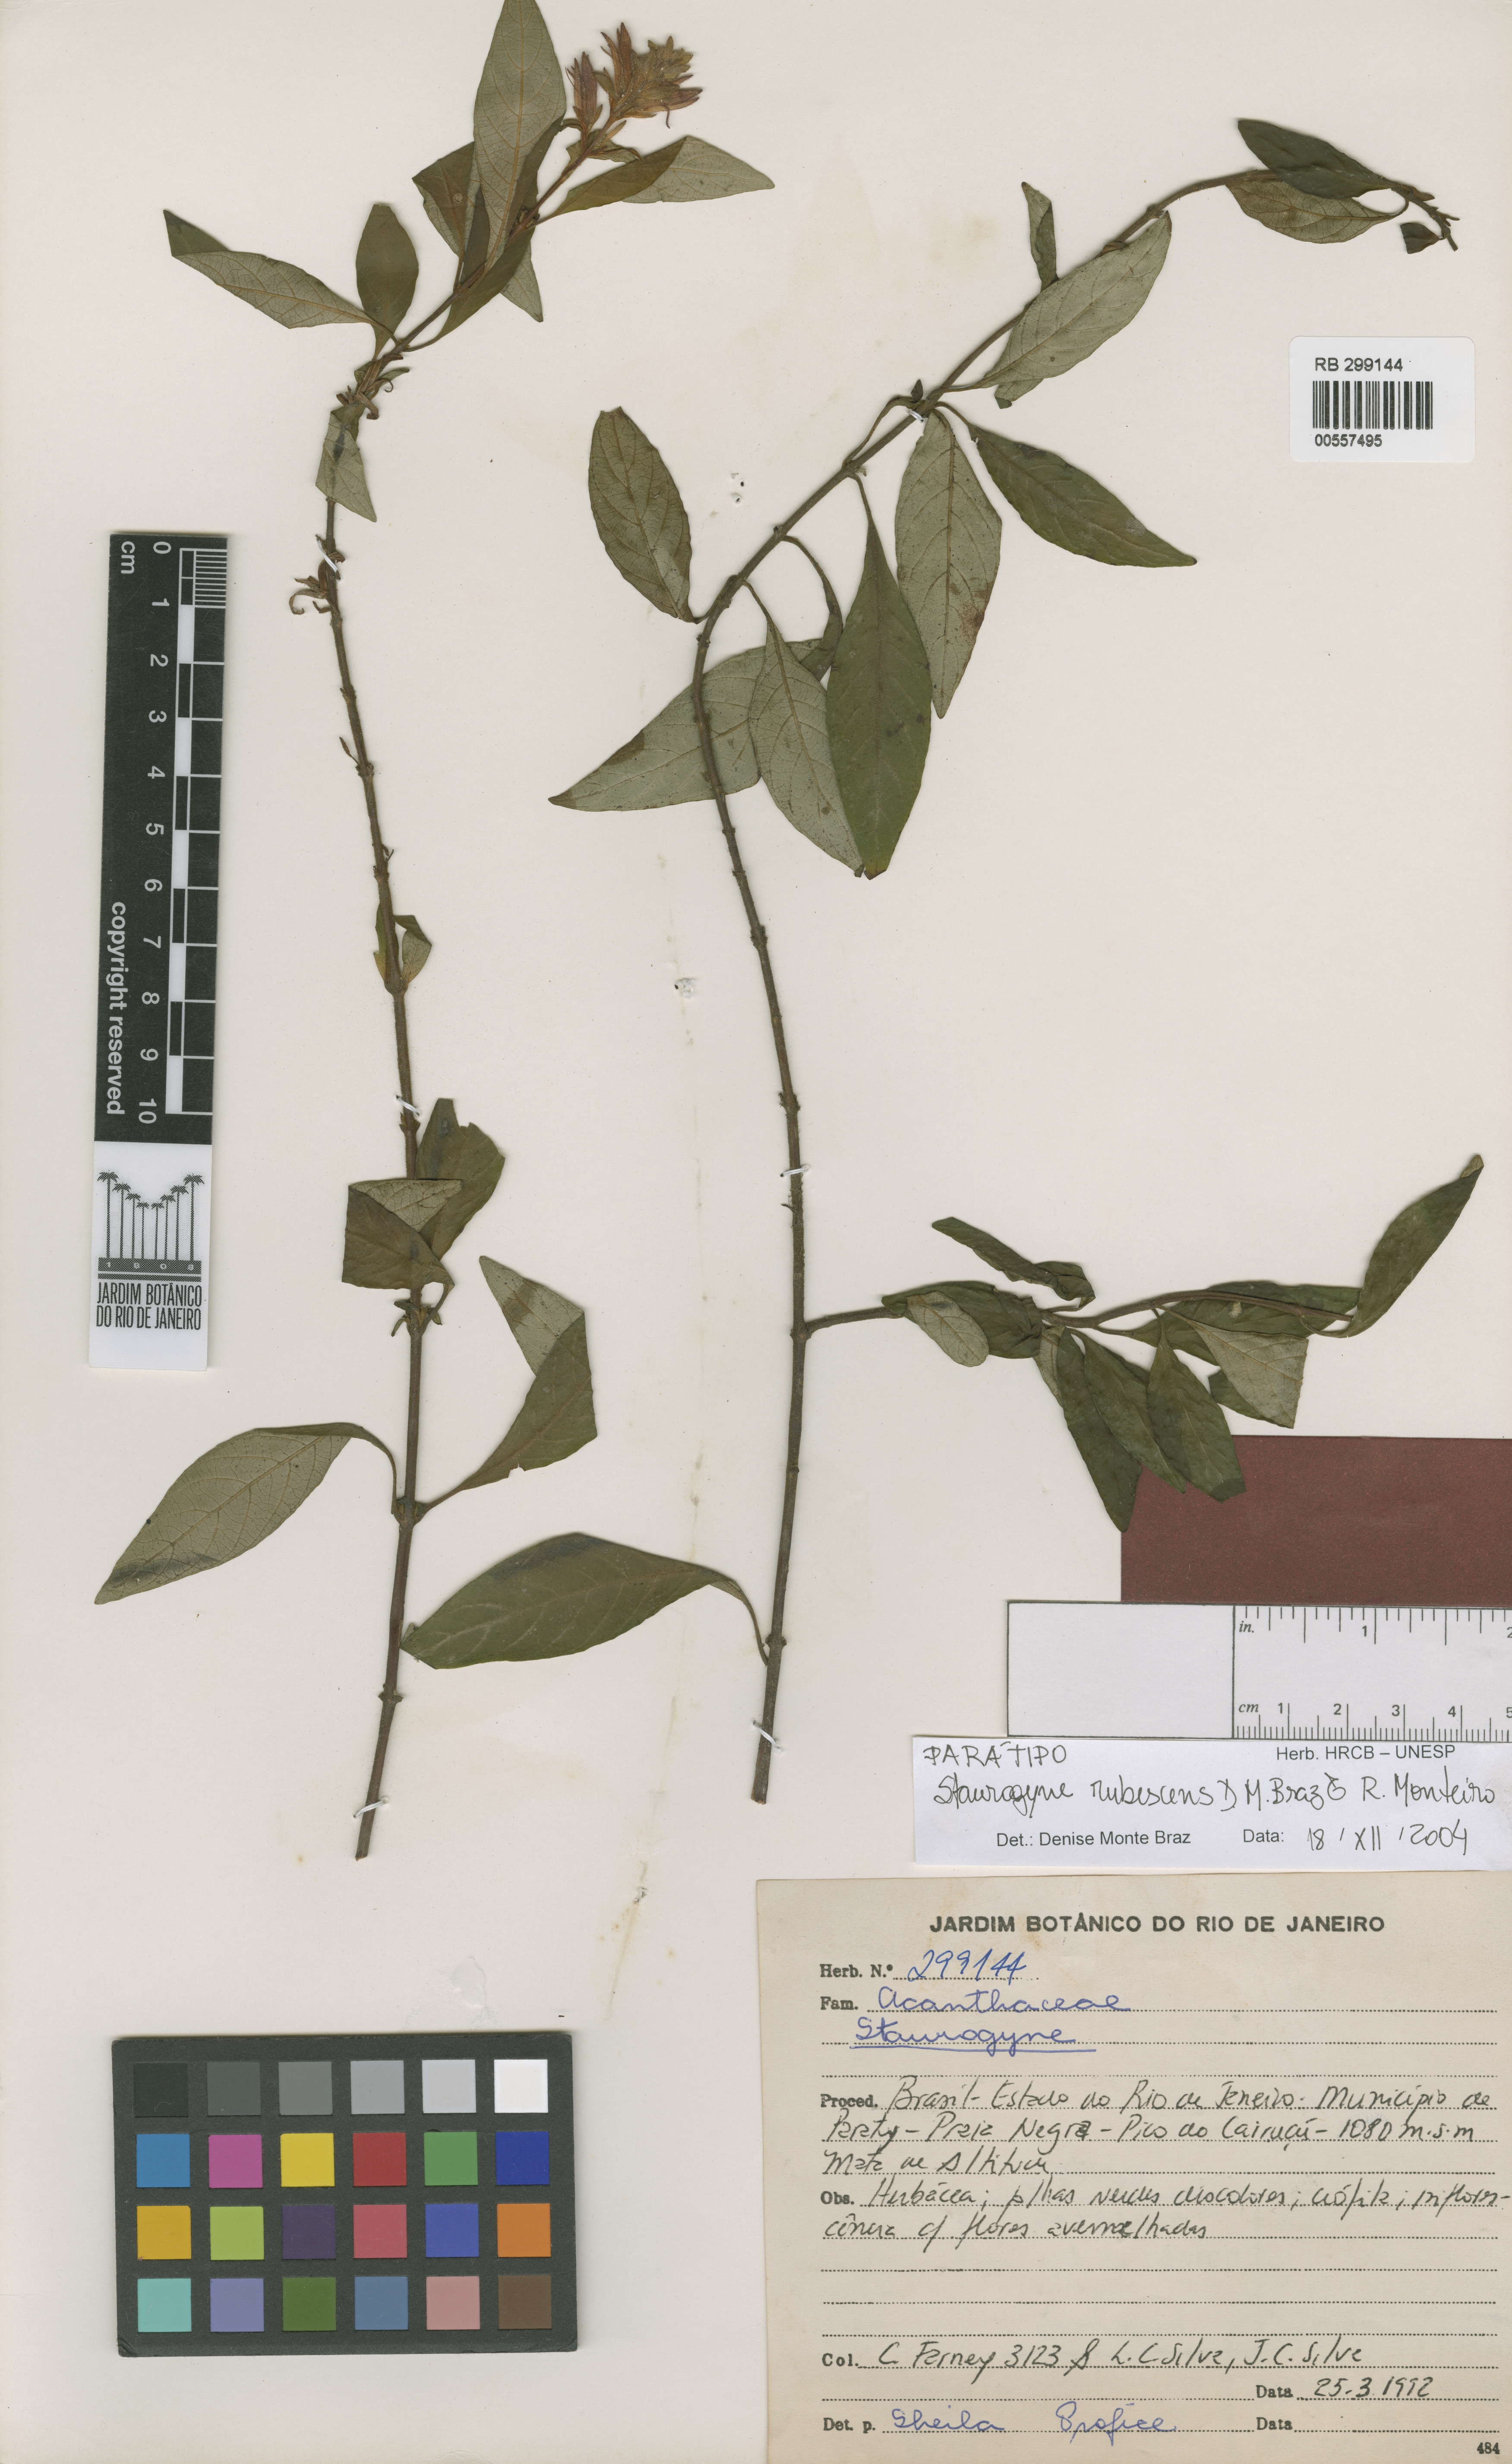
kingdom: Plantae
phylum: Tracheophyta
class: Magnoliopsida
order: Lamiales
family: Acanthaceae
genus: Staurogyne
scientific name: Staurogyne rubescens
